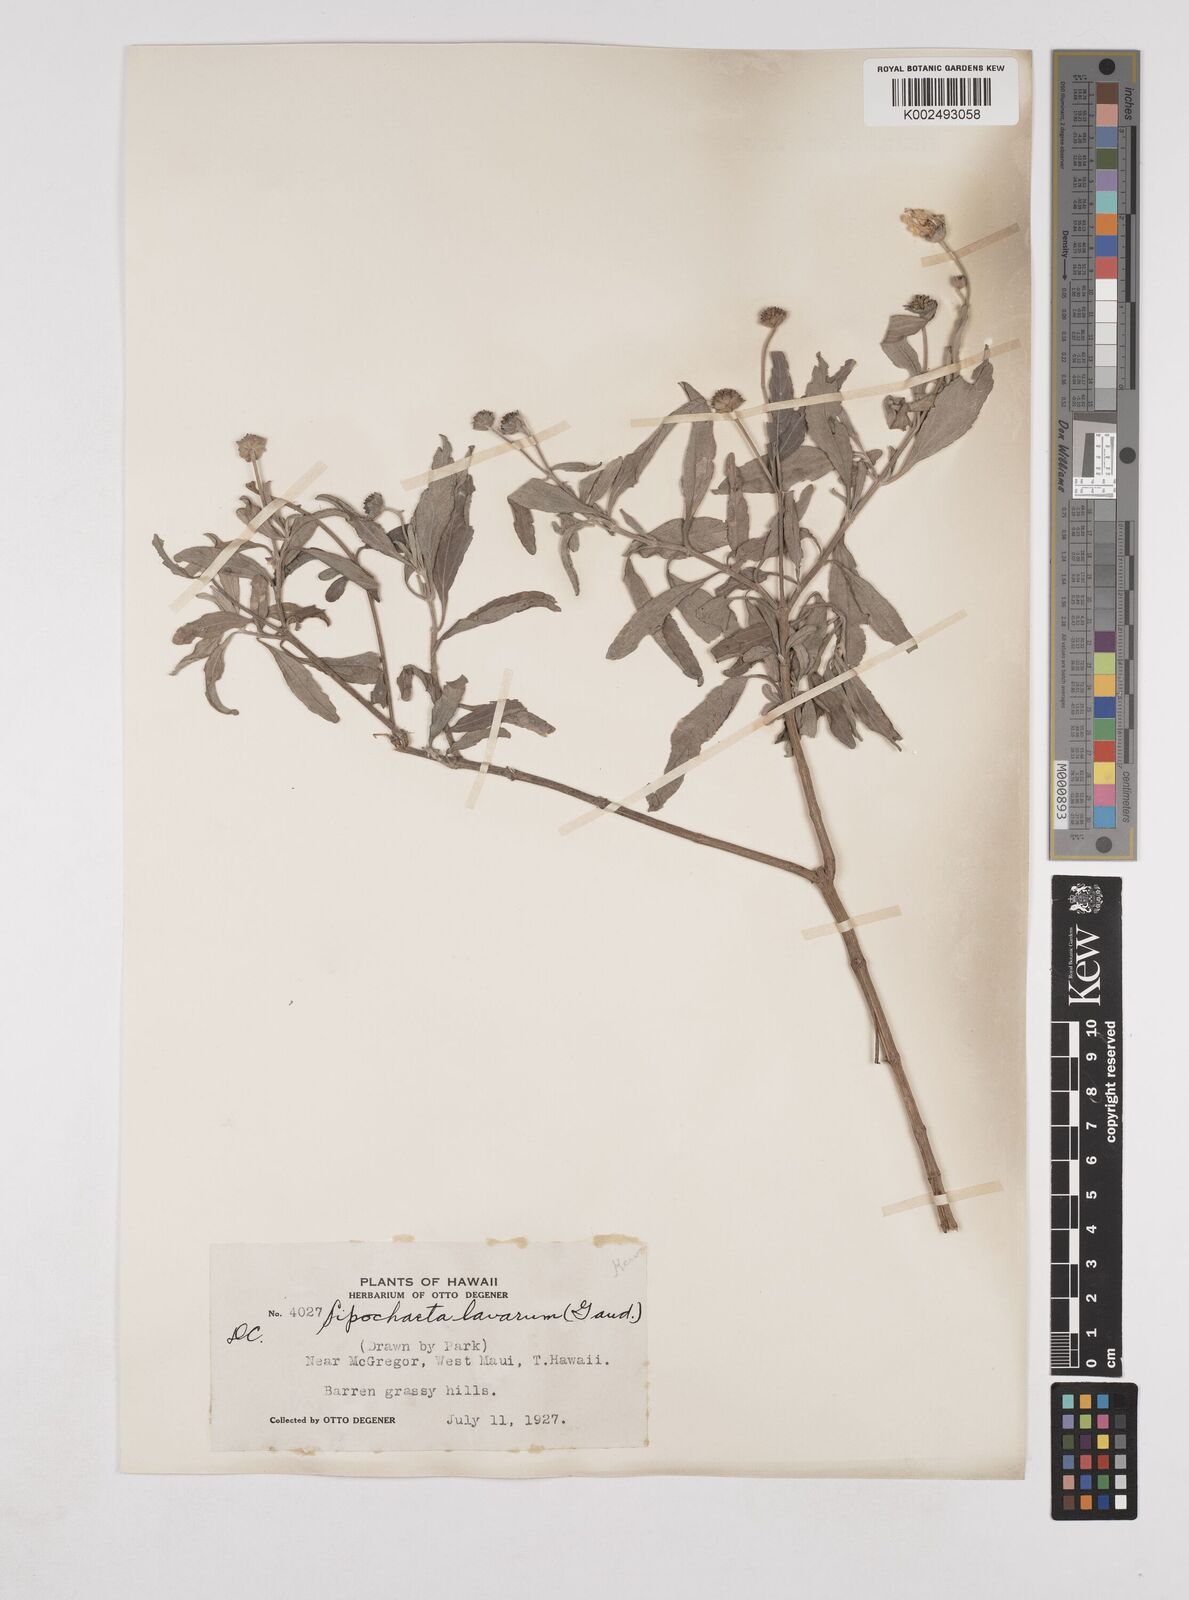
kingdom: Plantae
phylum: Tracheophyta
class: Magnoliopsida
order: Asterales
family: Asteraceae
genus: Lipochaeta
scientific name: Lipochaeta lavarum
